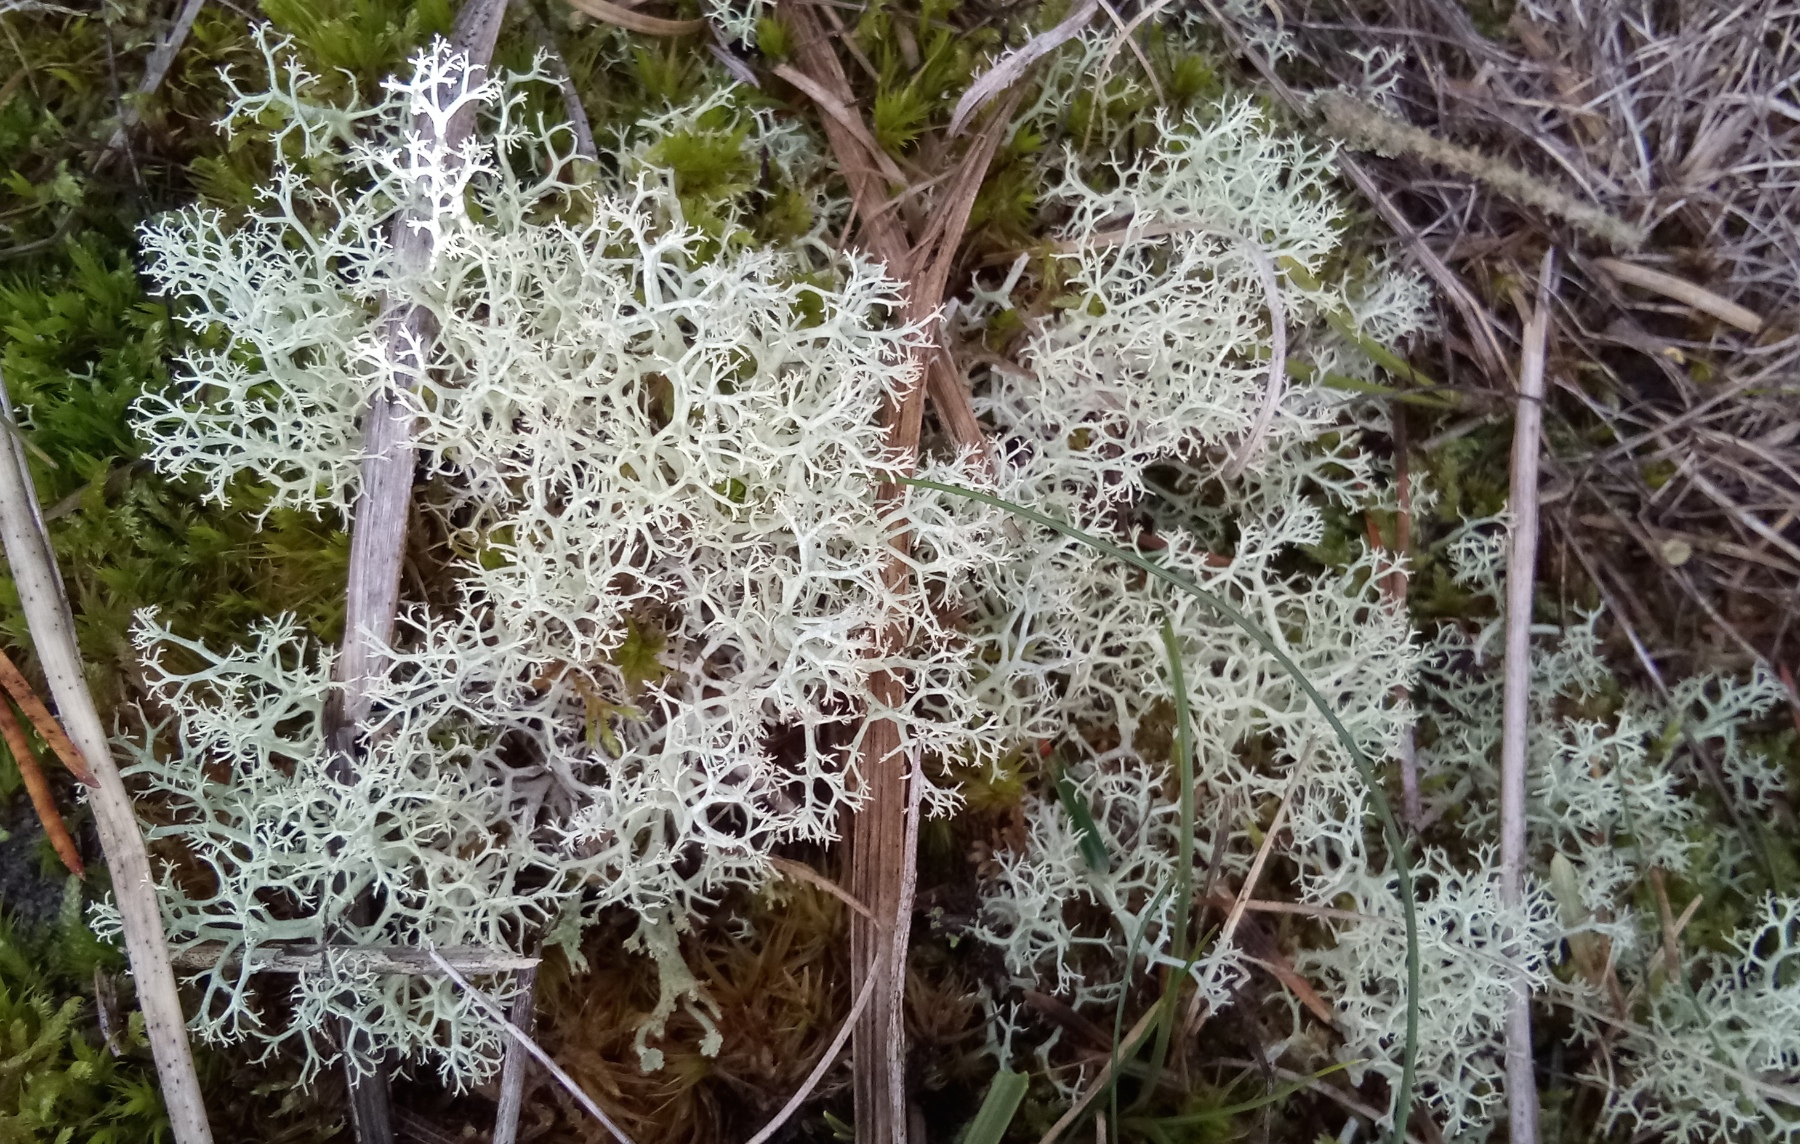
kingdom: Fungi
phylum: Ascomycota
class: Lecanoromycetes
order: Lecanorales
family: Cladoniaceae
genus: Cladonia
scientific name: Cladonia portentosa
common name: hede-rensdyrlav
